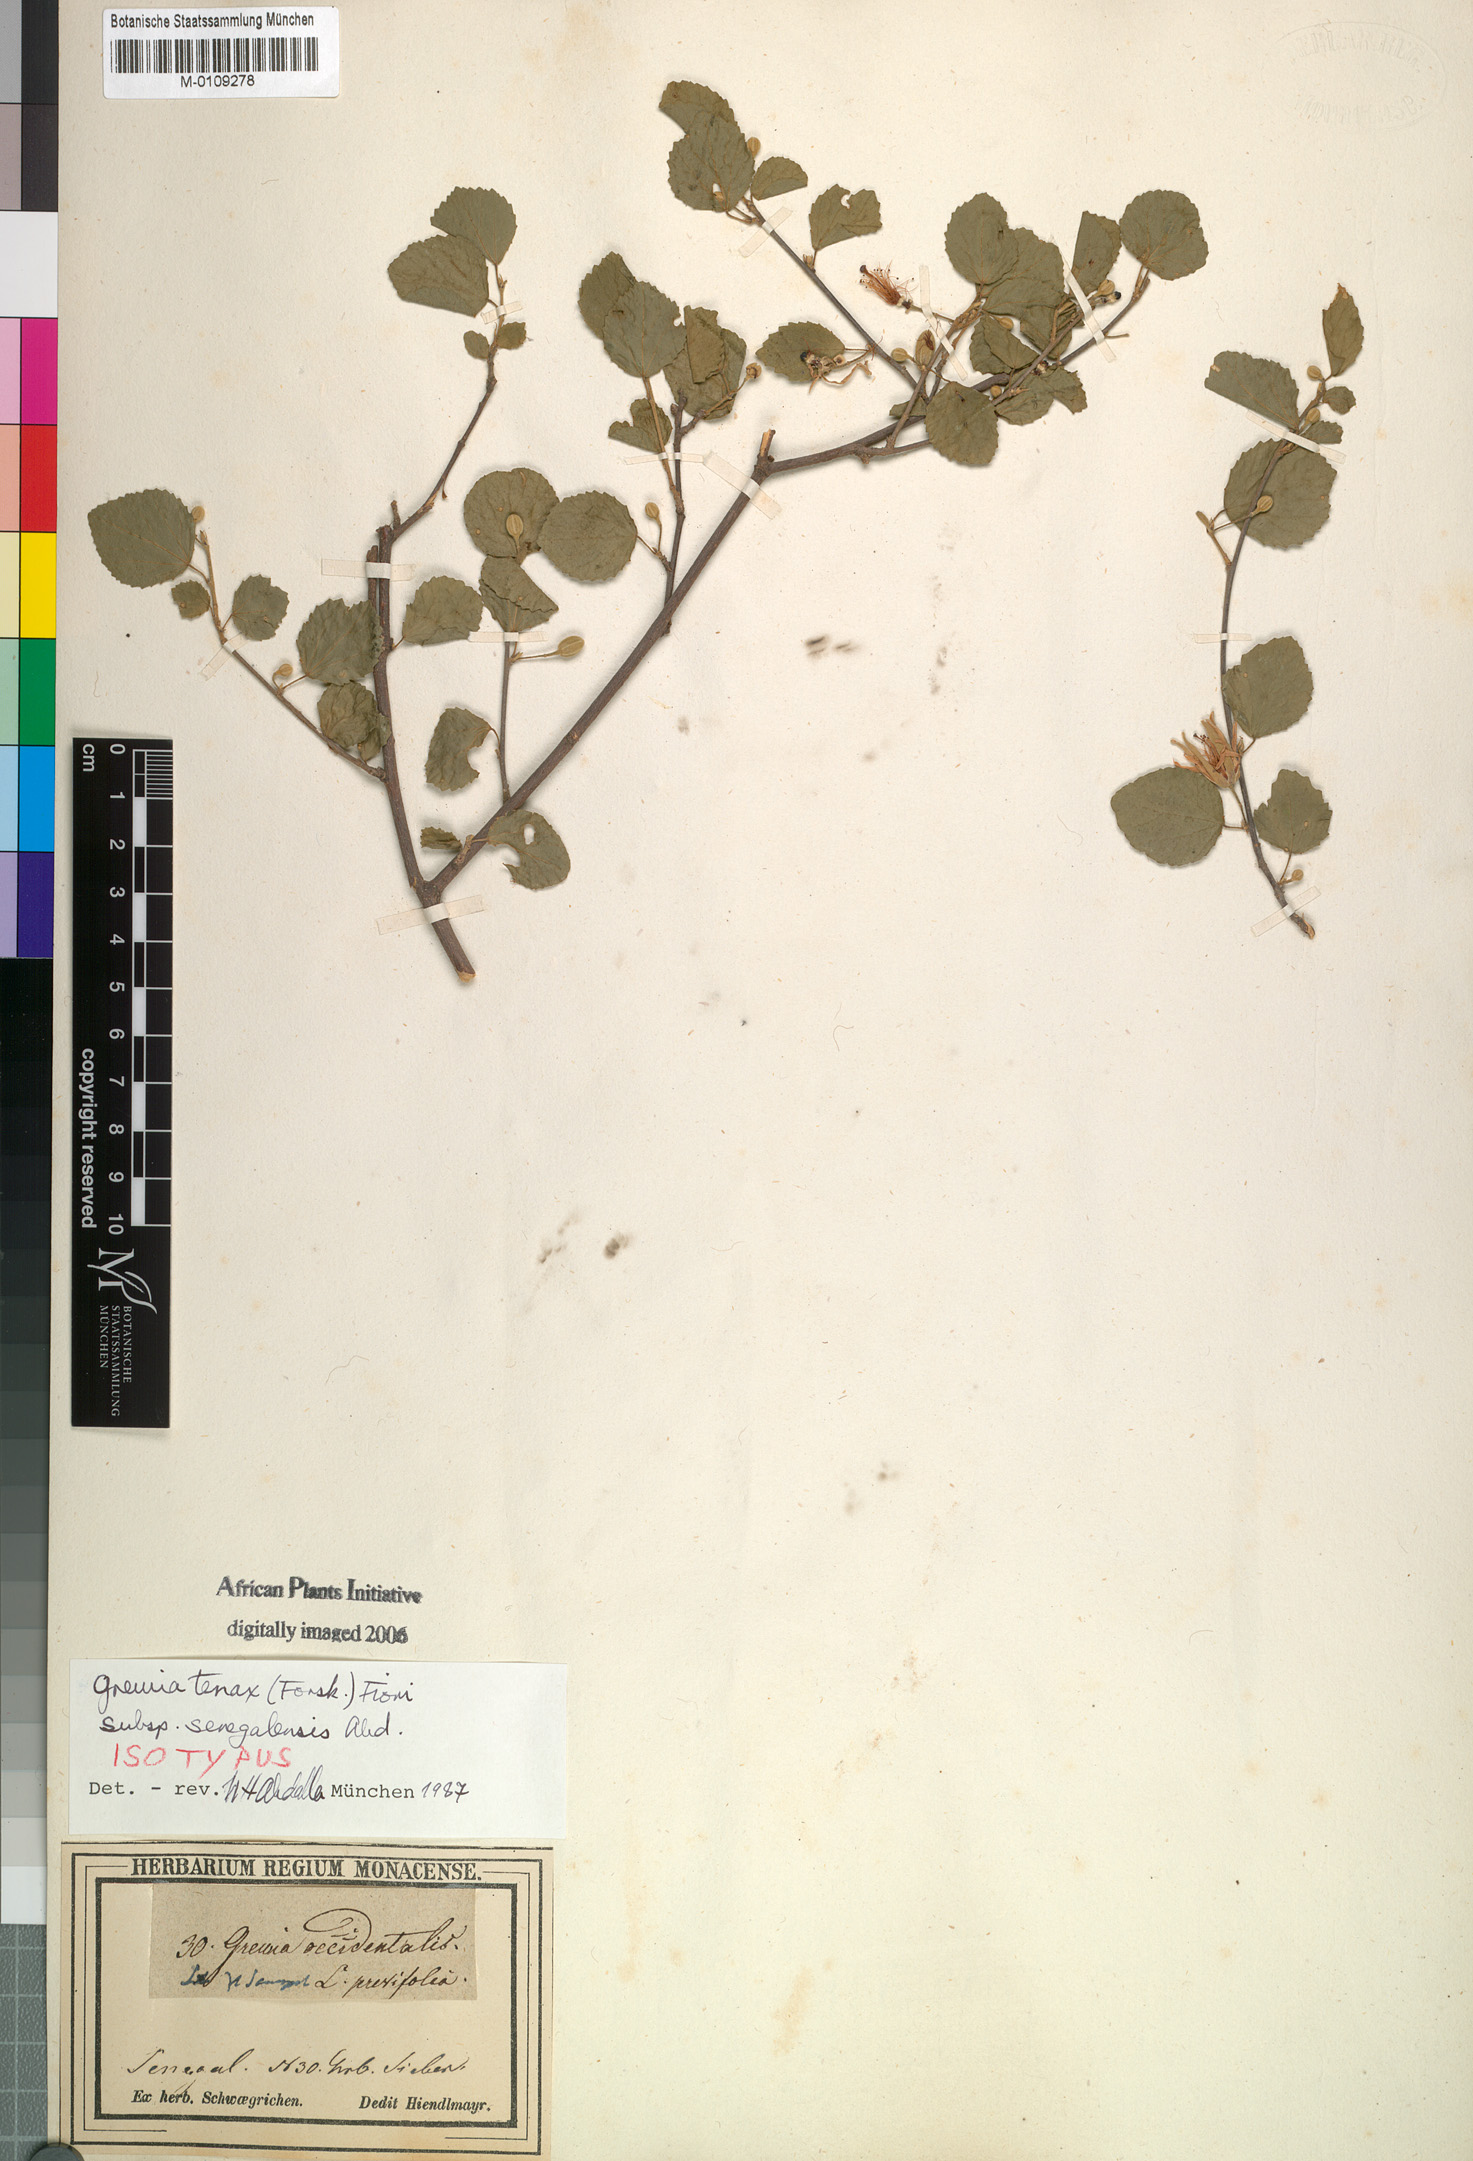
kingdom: Plantae
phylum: Tracheophyta
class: Magnoliopsida
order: Malvales
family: Malvaceae
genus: Grewia
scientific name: Grewia tenax
